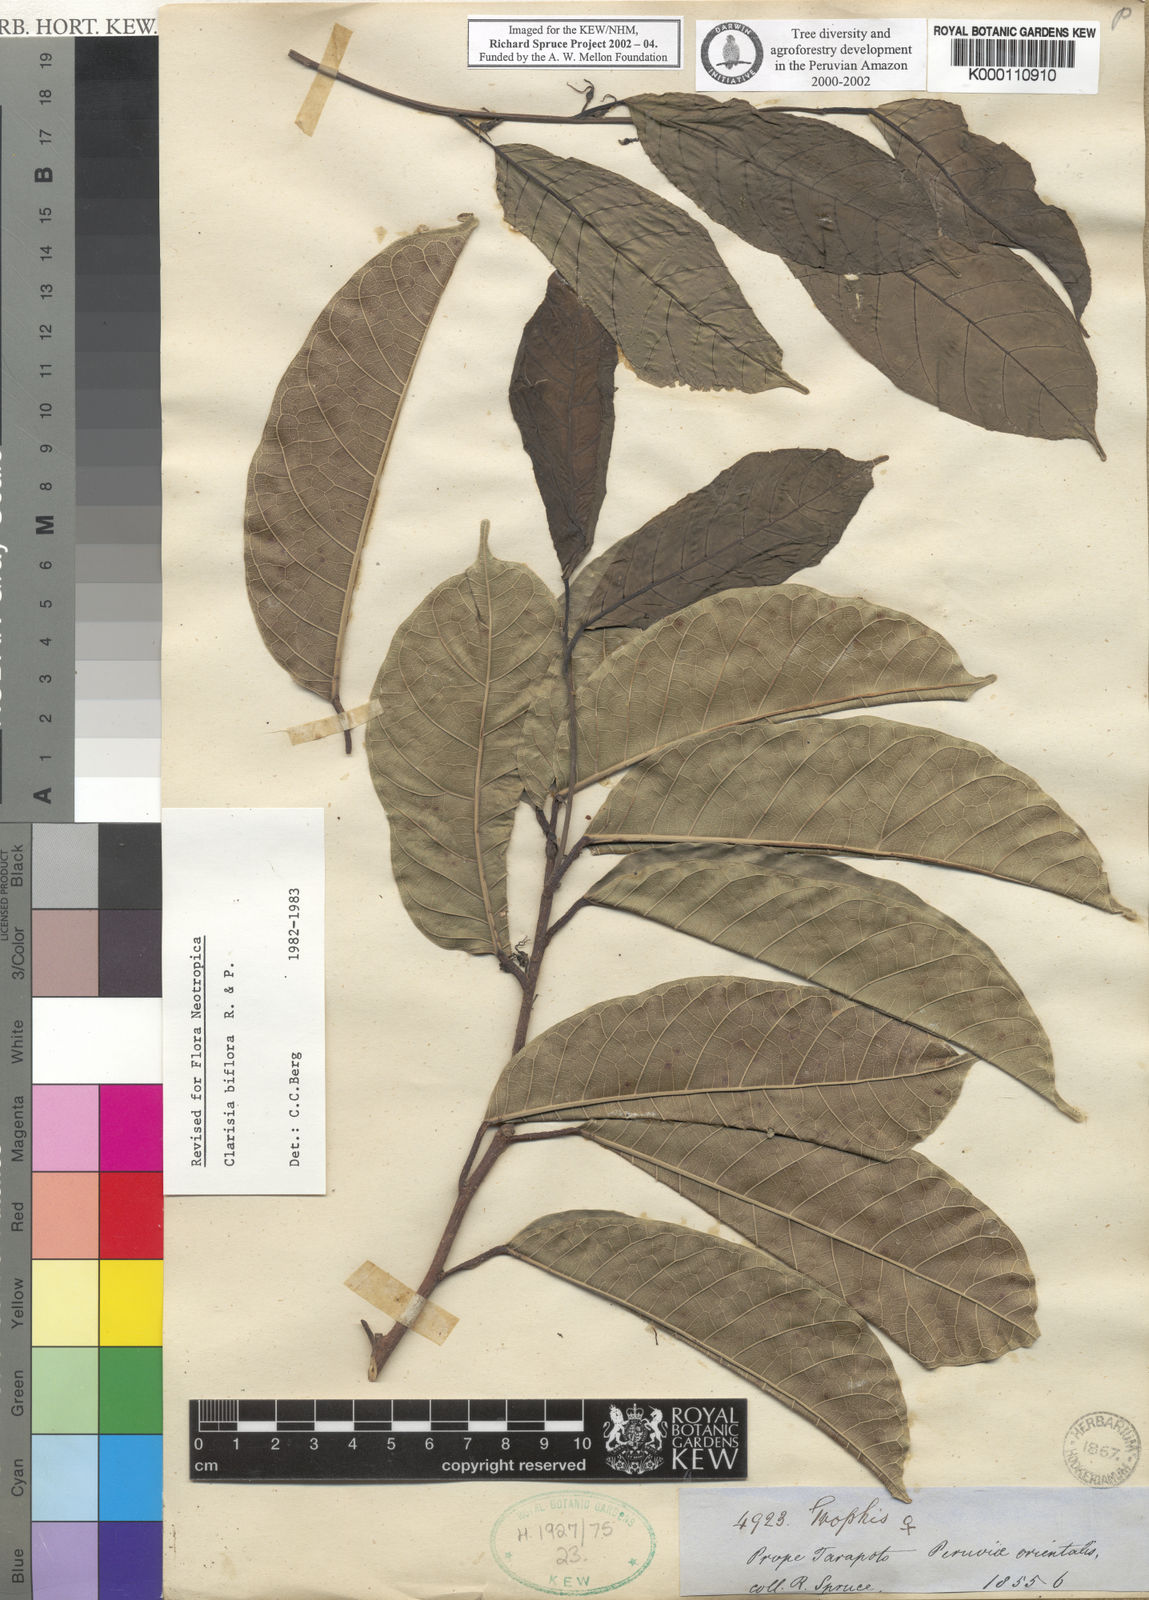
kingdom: Plantae
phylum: Tracheophyta
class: Magnoliopsida
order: Rosales
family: Moraceae
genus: Clarisia
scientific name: Clarisia biflora
